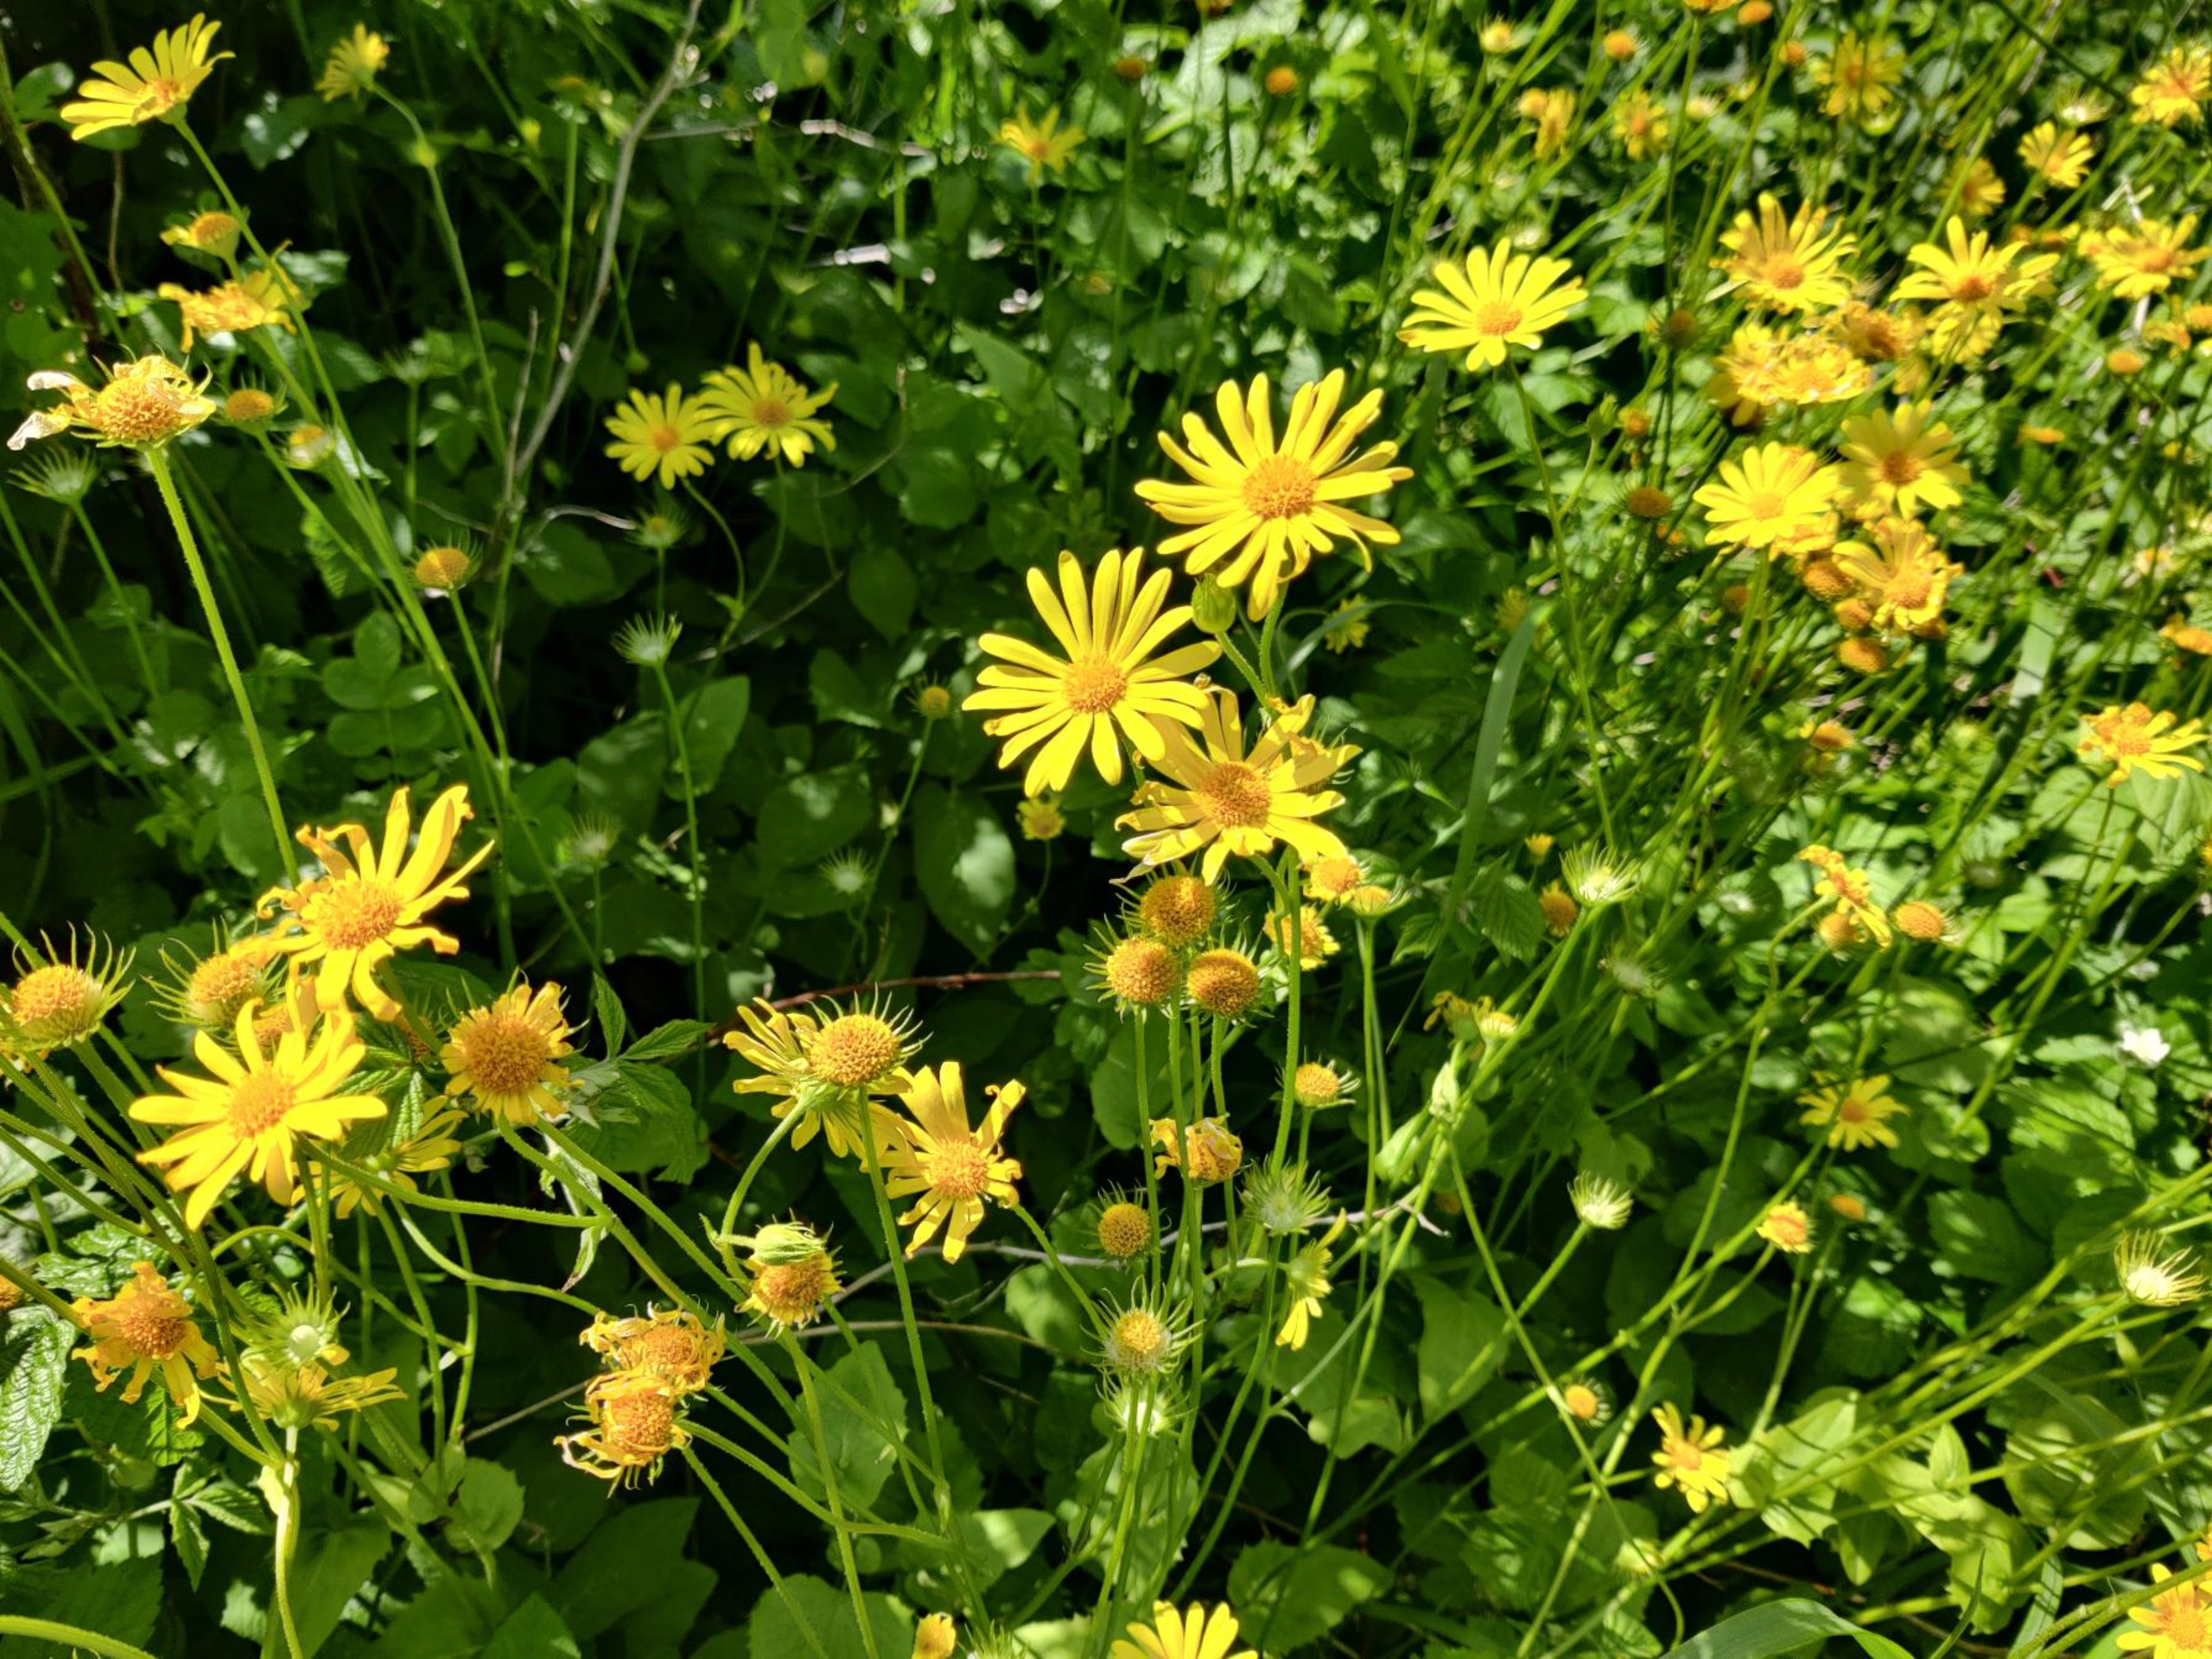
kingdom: Plantae
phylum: Tracheophyta
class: Magnoliopsida
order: Asterales
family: Asteraceae
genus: Doronicum
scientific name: Doronicum pardalianches
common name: Hjertebladet gemserod
